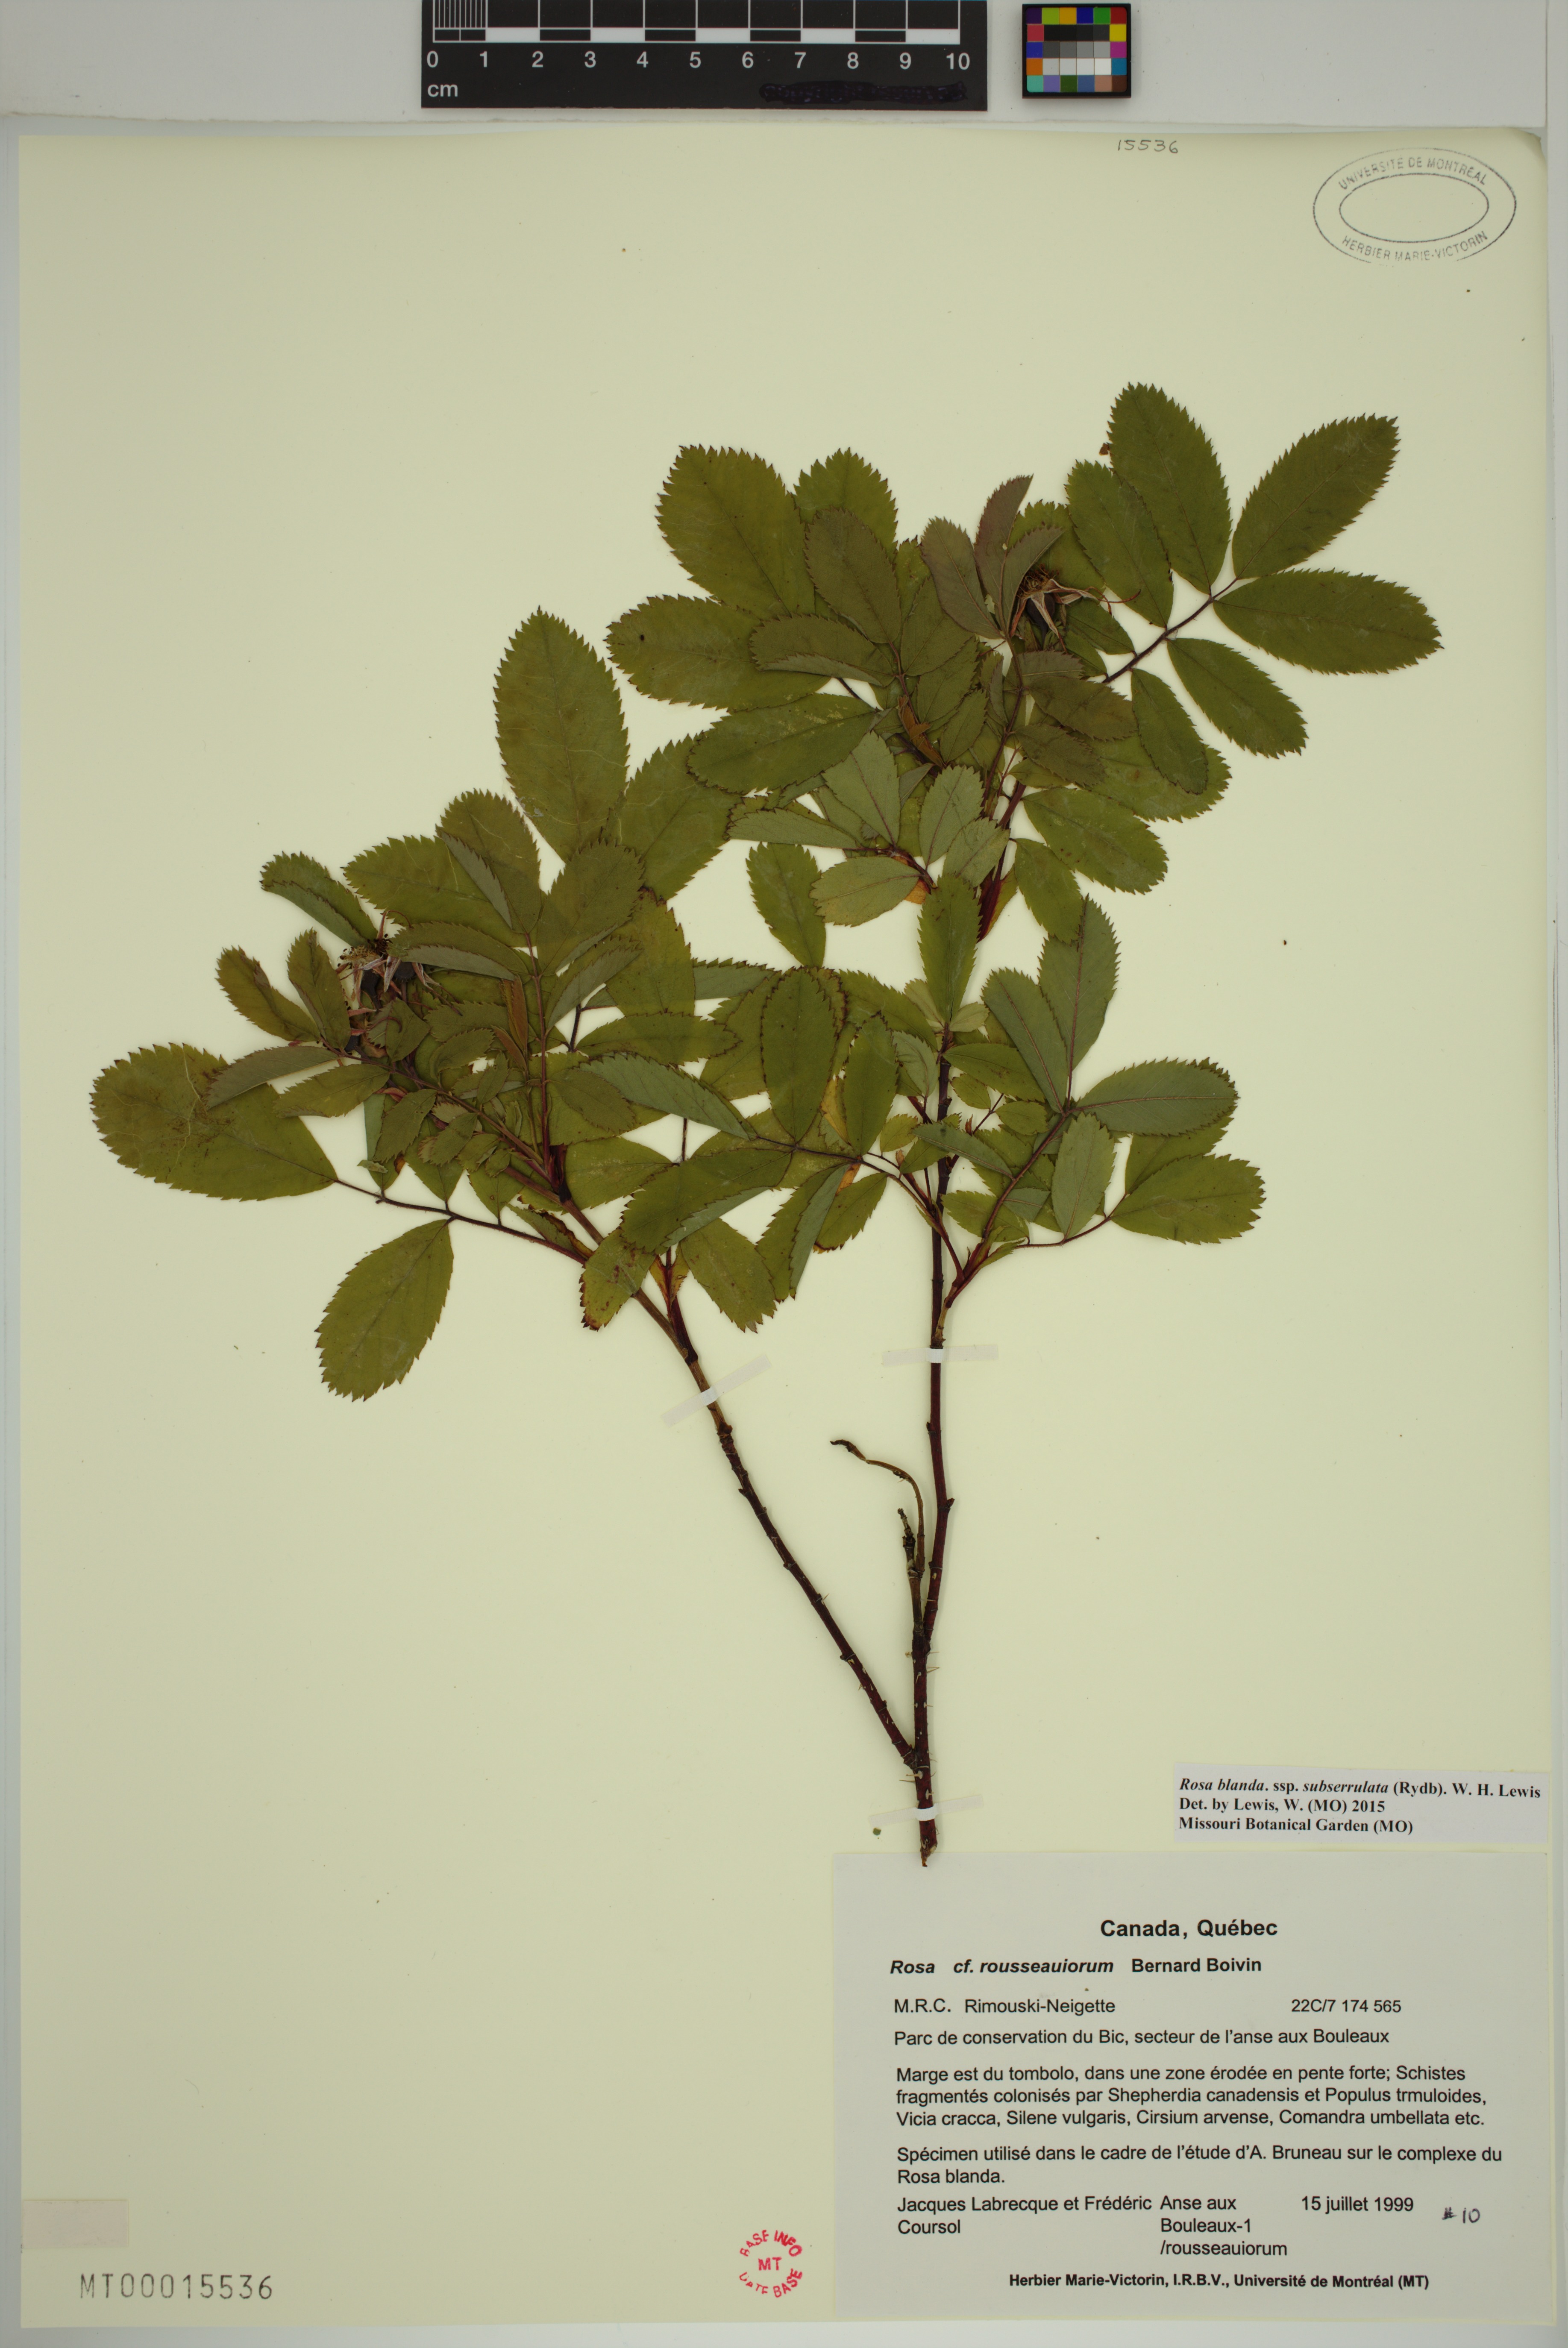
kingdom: Plantae
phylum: Tracheophyta
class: Magnoliopsida
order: Rosales
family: Rosaceae
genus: Rosa
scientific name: Rosa blanda
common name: Smooth rose
